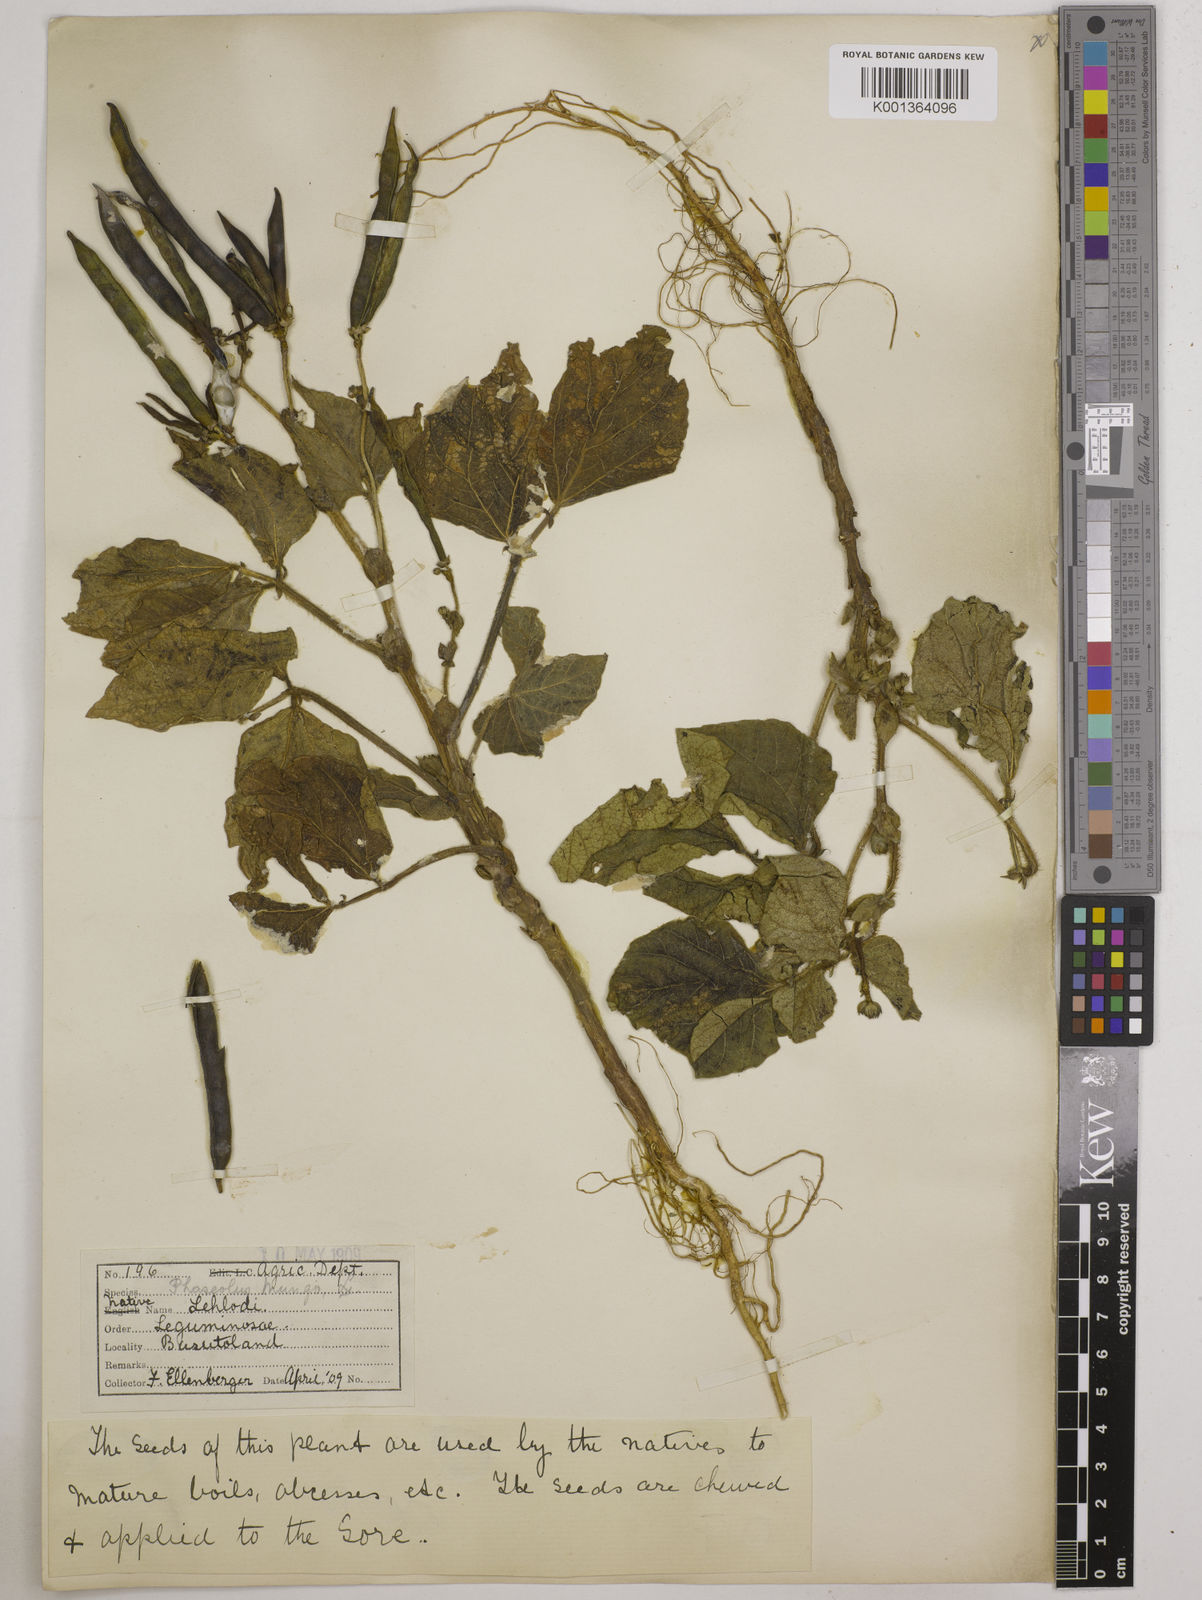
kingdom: Plantae
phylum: Tracheophyta
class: Magnoliopsida
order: Fabales
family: Fabaceae
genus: Vigna
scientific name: Vigna radiata
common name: Mung-bean
